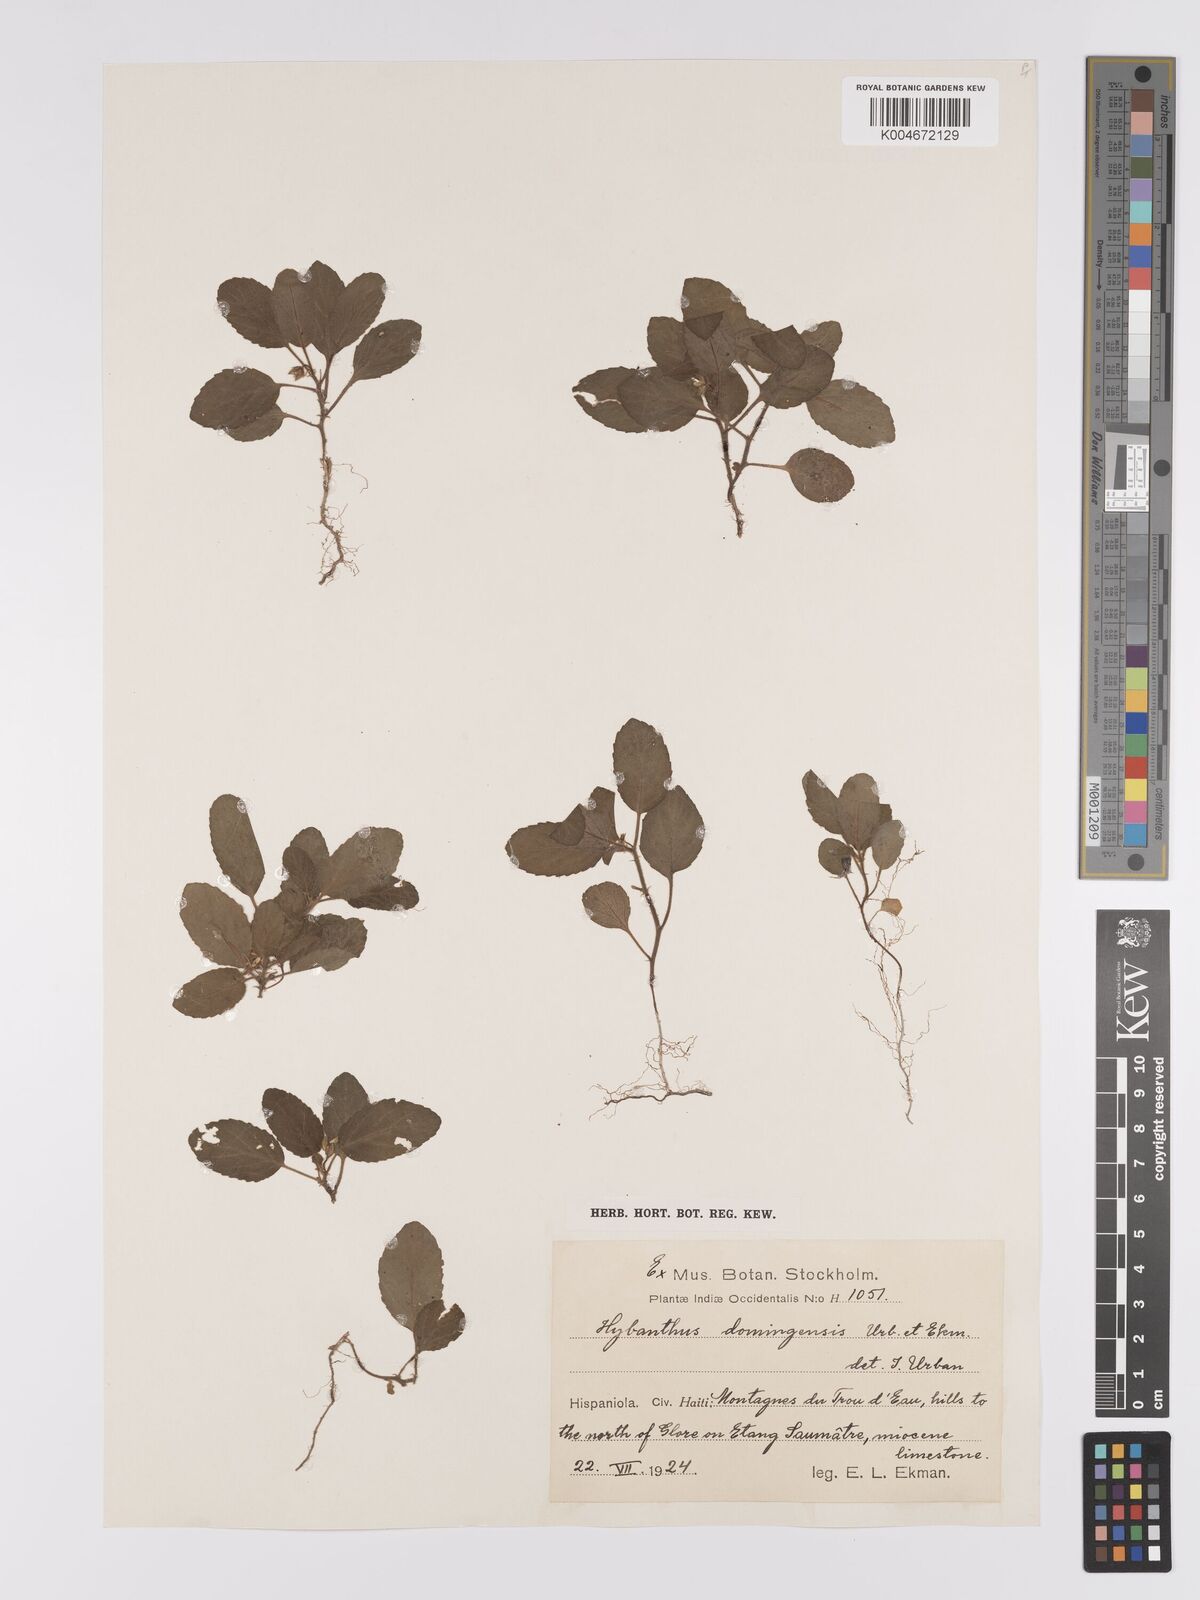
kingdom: Plantae
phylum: Tracheophyta
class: Magnoliopsida
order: Malpighiales
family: Violaceae
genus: Hybanthus
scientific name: Hybanthus domingensis
